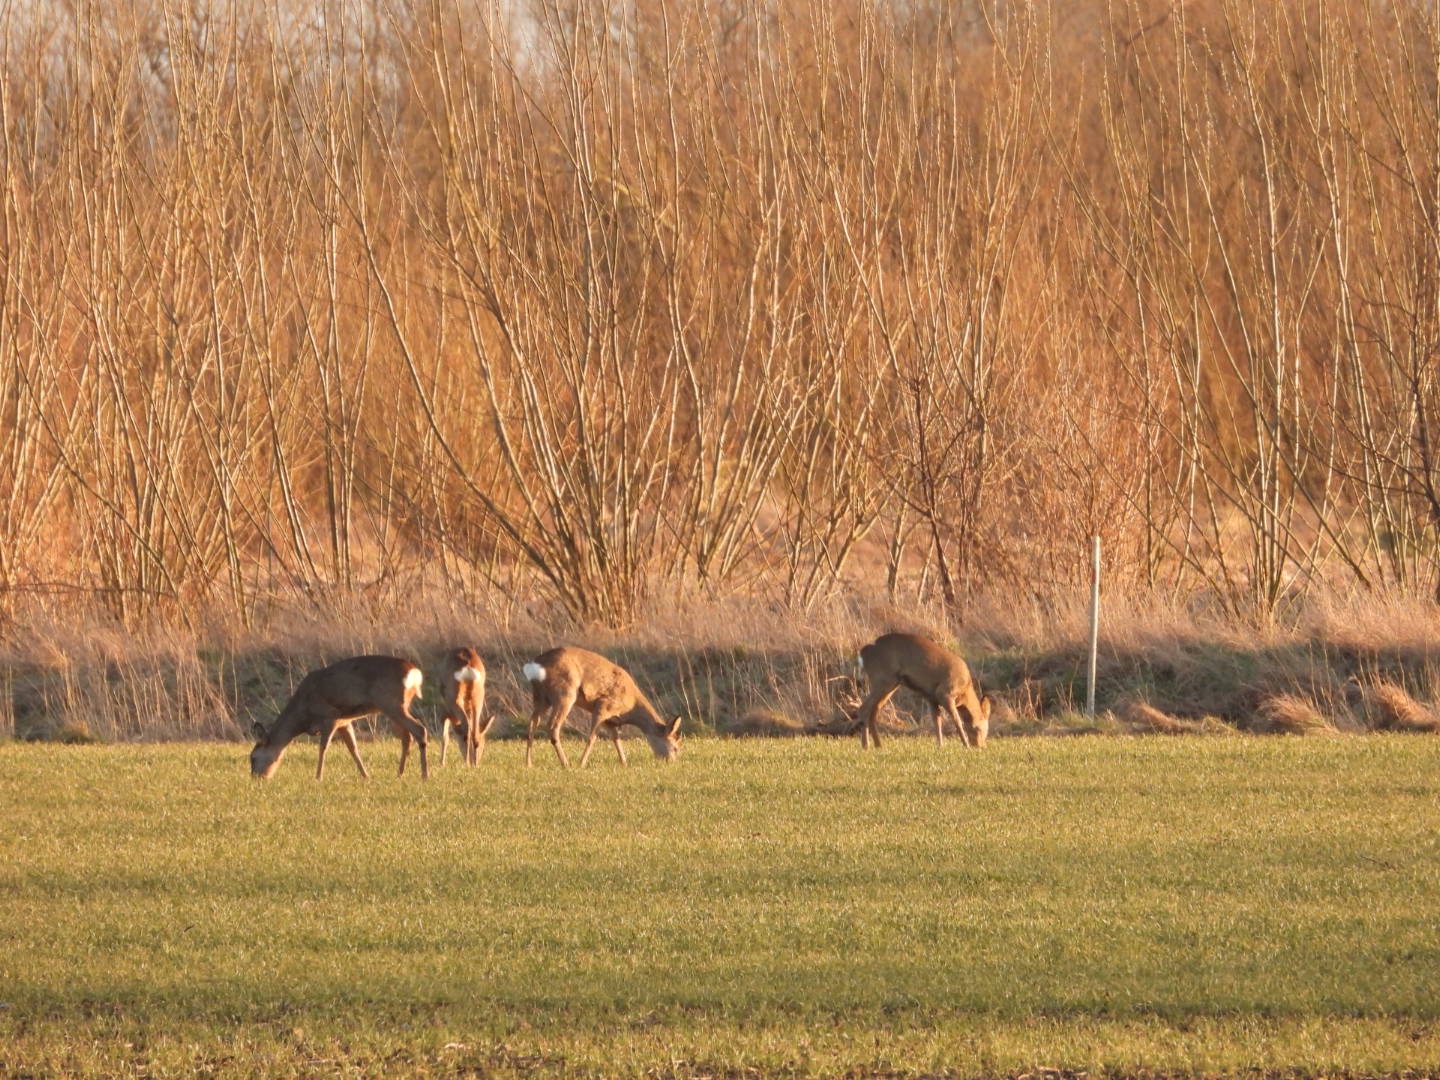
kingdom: Animalia
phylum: Chordata
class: Mammalia
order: Artiodactyla
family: Cervidae
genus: Capreolus
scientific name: Capreolus capreolus
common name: Rådyr
